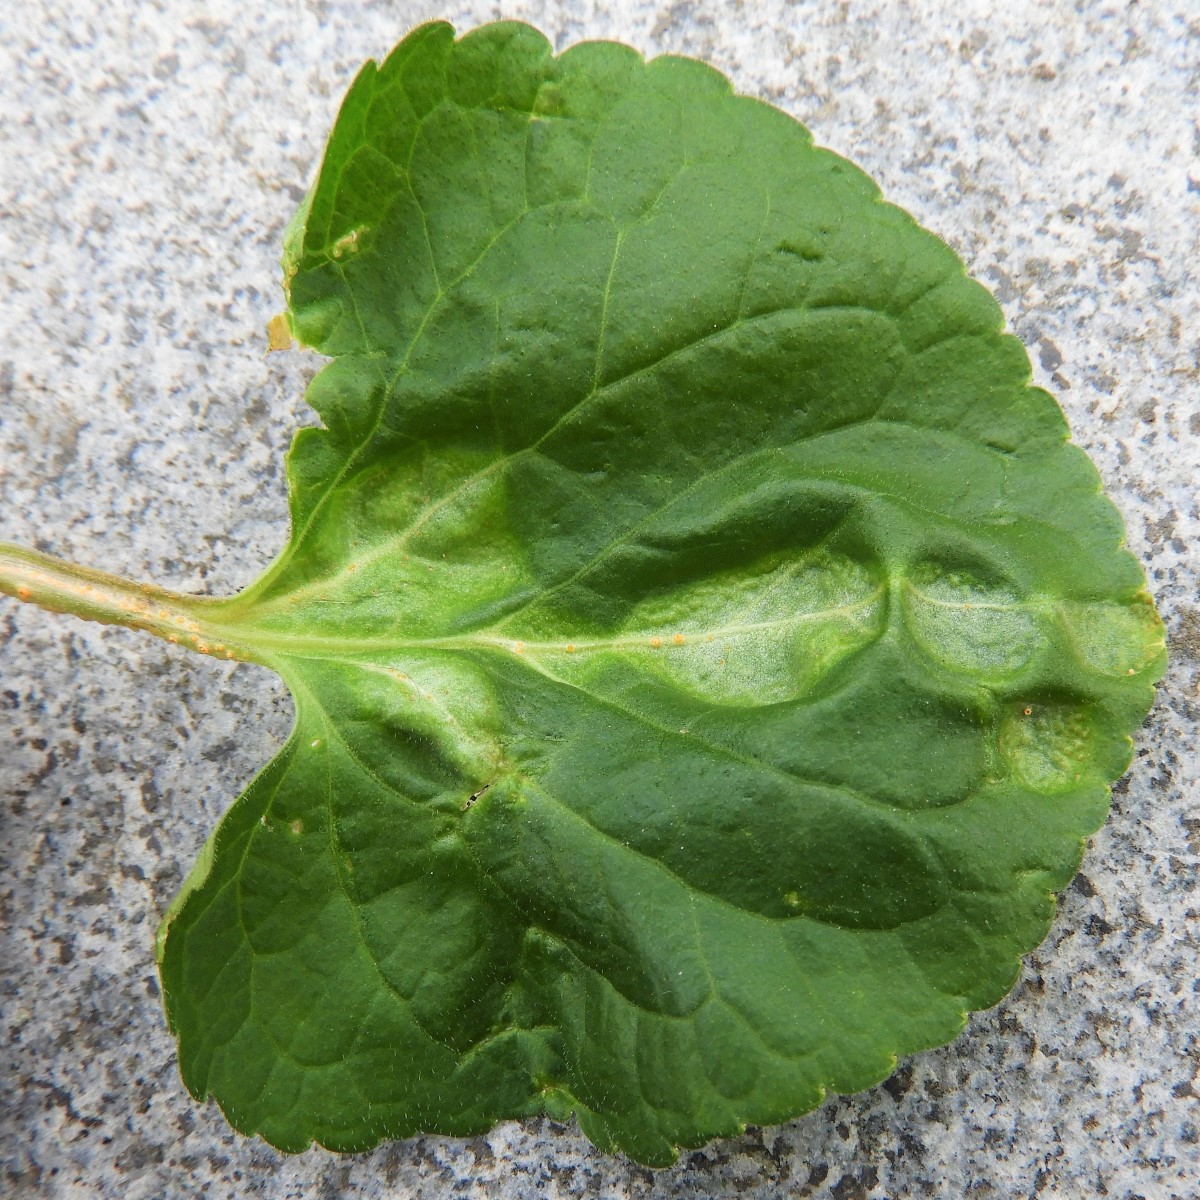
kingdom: Fungi
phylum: Basidiomycota
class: Pucciniomycetes
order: Pucciniales
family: Pucciniaceae
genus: Puccinia
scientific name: Puccinia violae
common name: viol-tvecellerust
